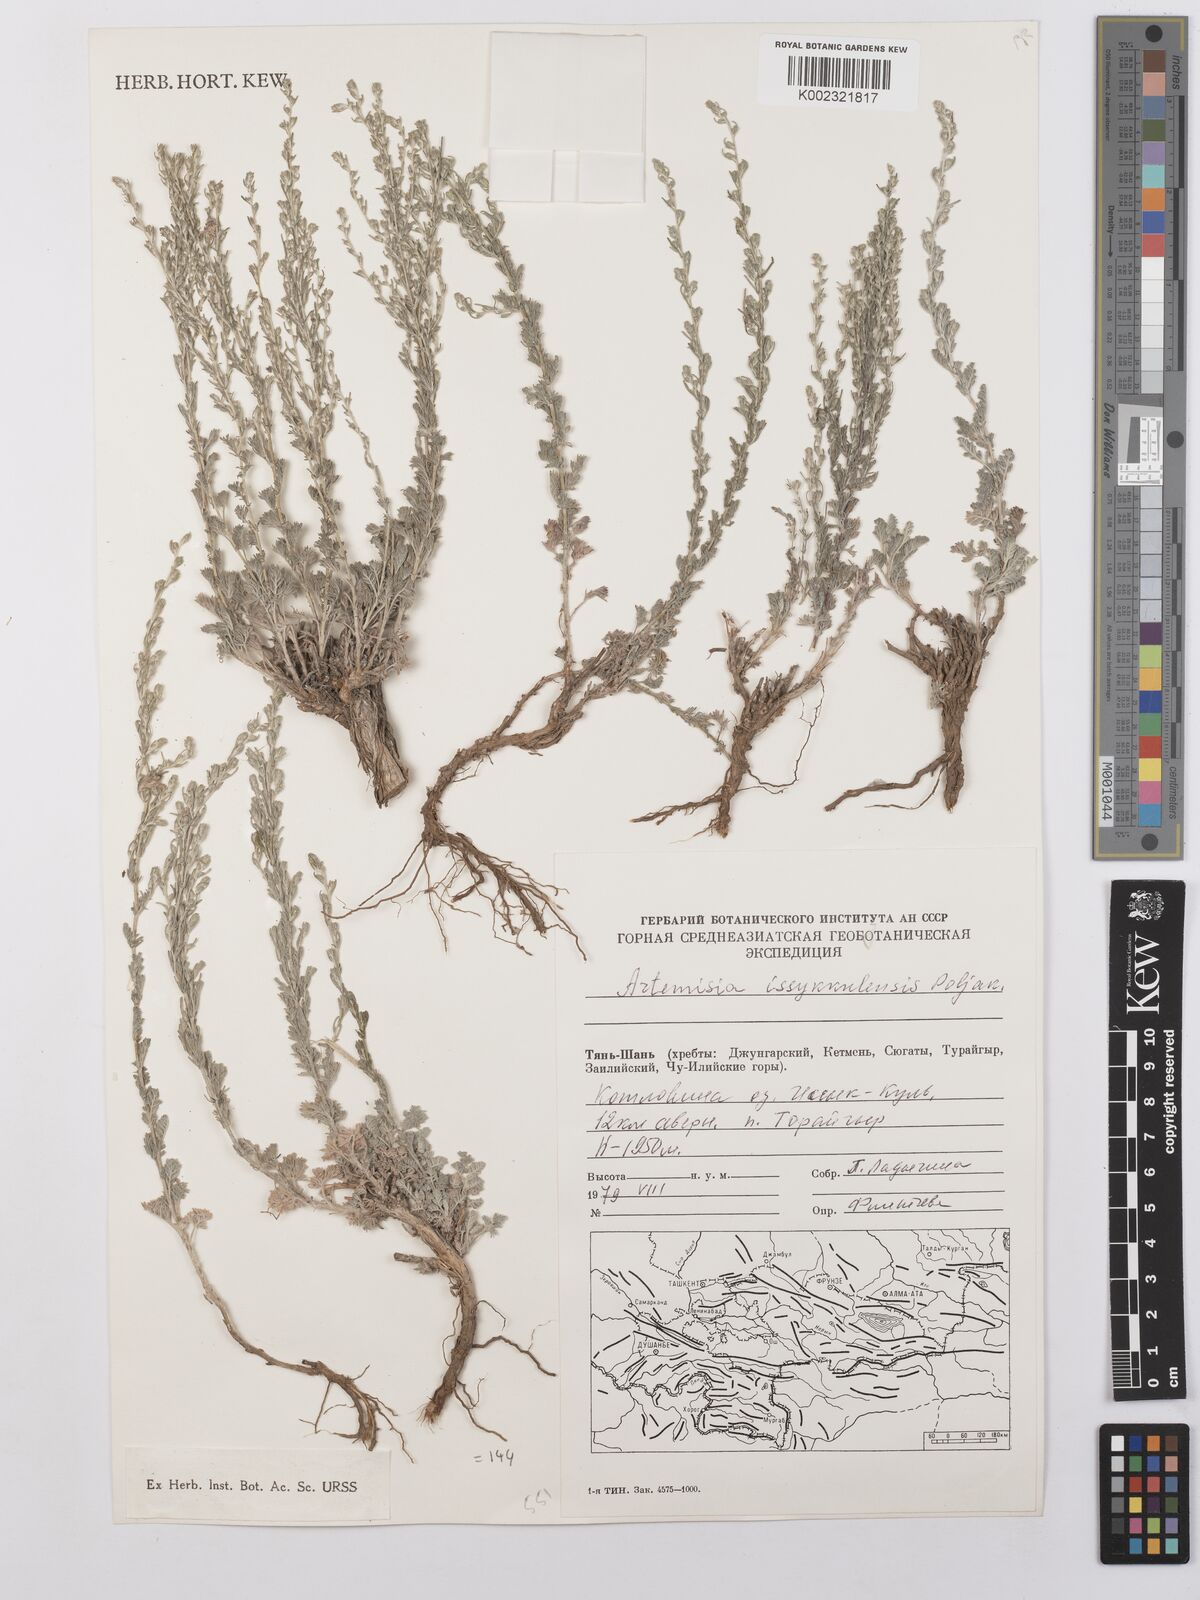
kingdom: Plantae
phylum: Tracheophyta
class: Magnoliopsida
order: Asterales
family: Asteraceae
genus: Artemisia
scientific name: Artemisia fedtschenkoana
